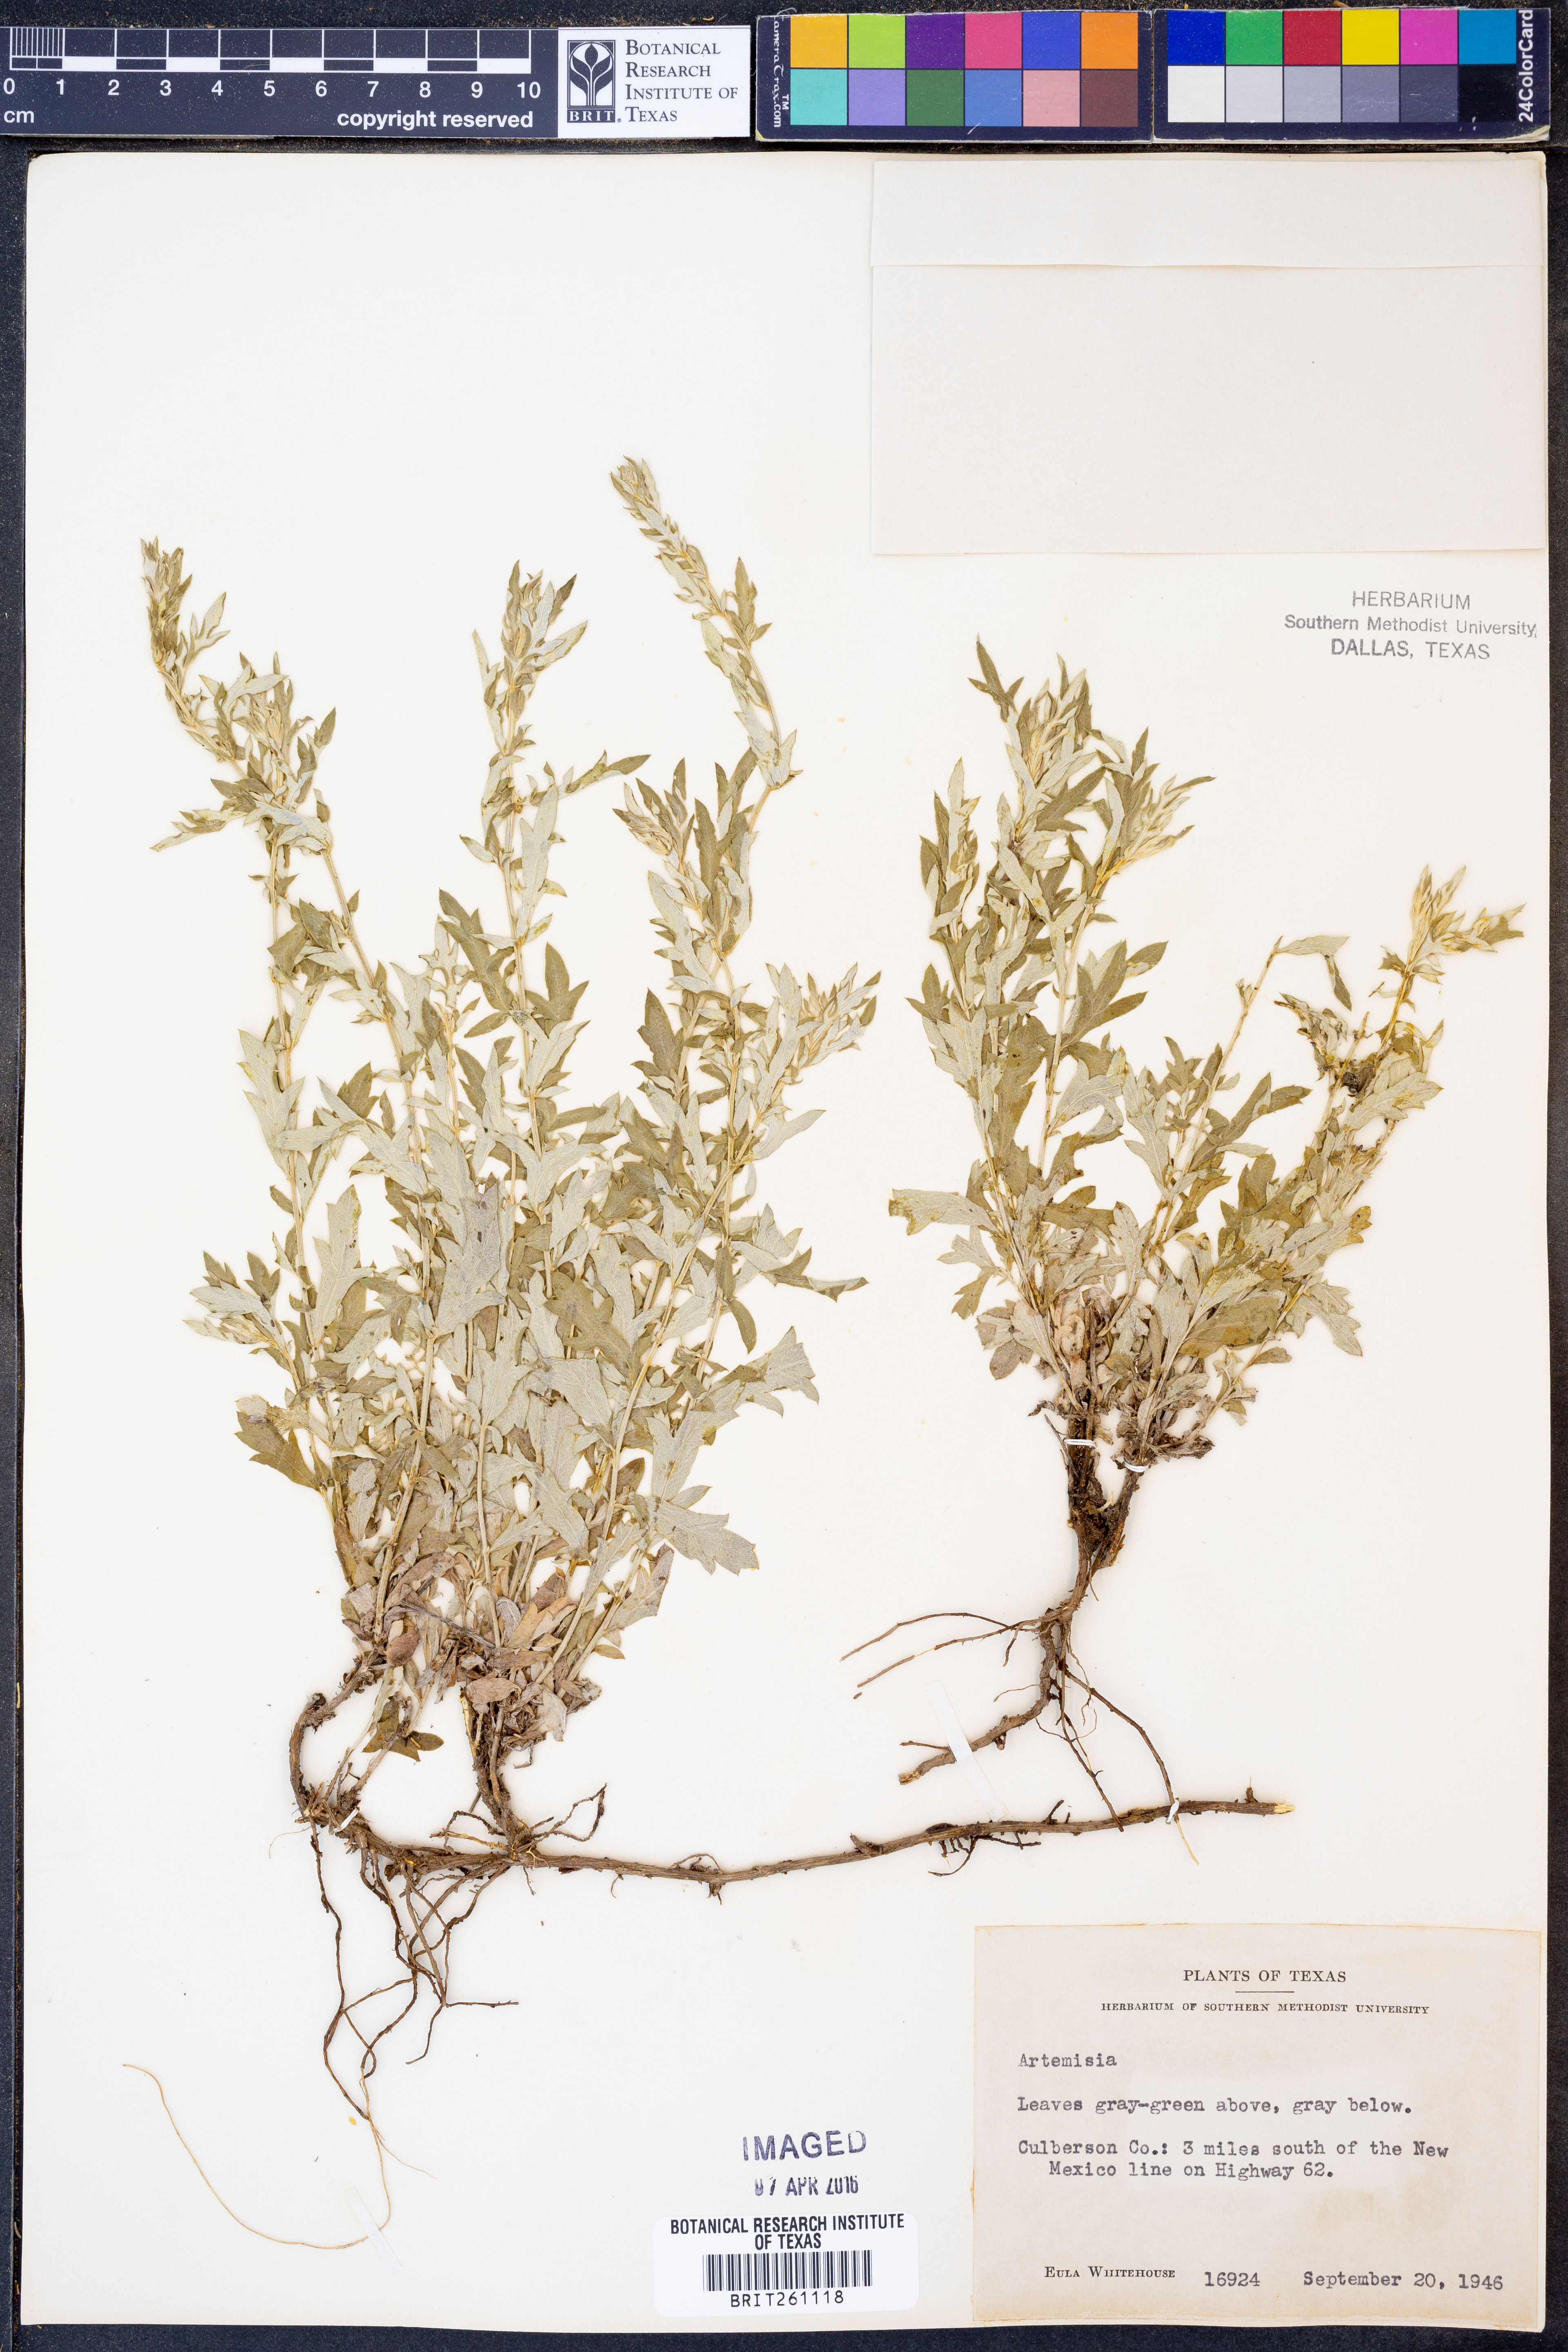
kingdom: Plantae
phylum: Tracheophyta
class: Magnoliopsida
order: Asterales
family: Asteraceae
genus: Artemisia
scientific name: Artemisia
